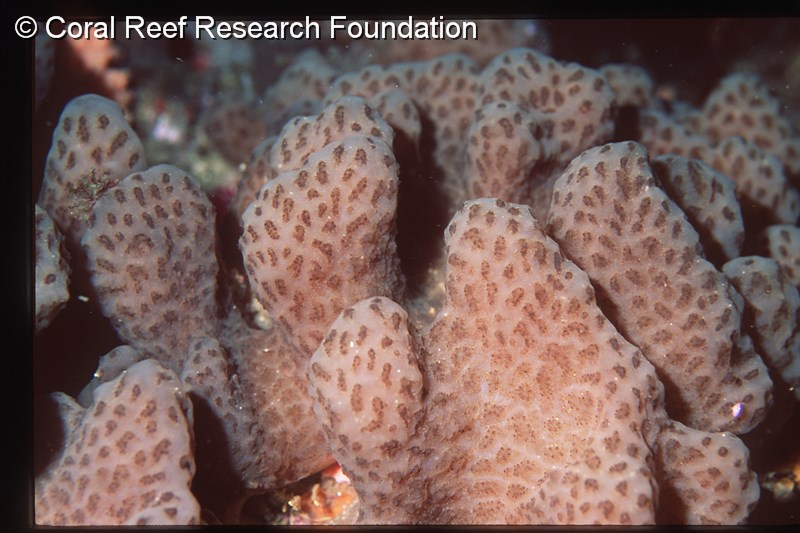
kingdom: Animalia
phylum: Chordata
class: Ascidiacea
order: Aplousobranchia
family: Polyclinidae
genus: Aplidium
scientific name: Aplidium
